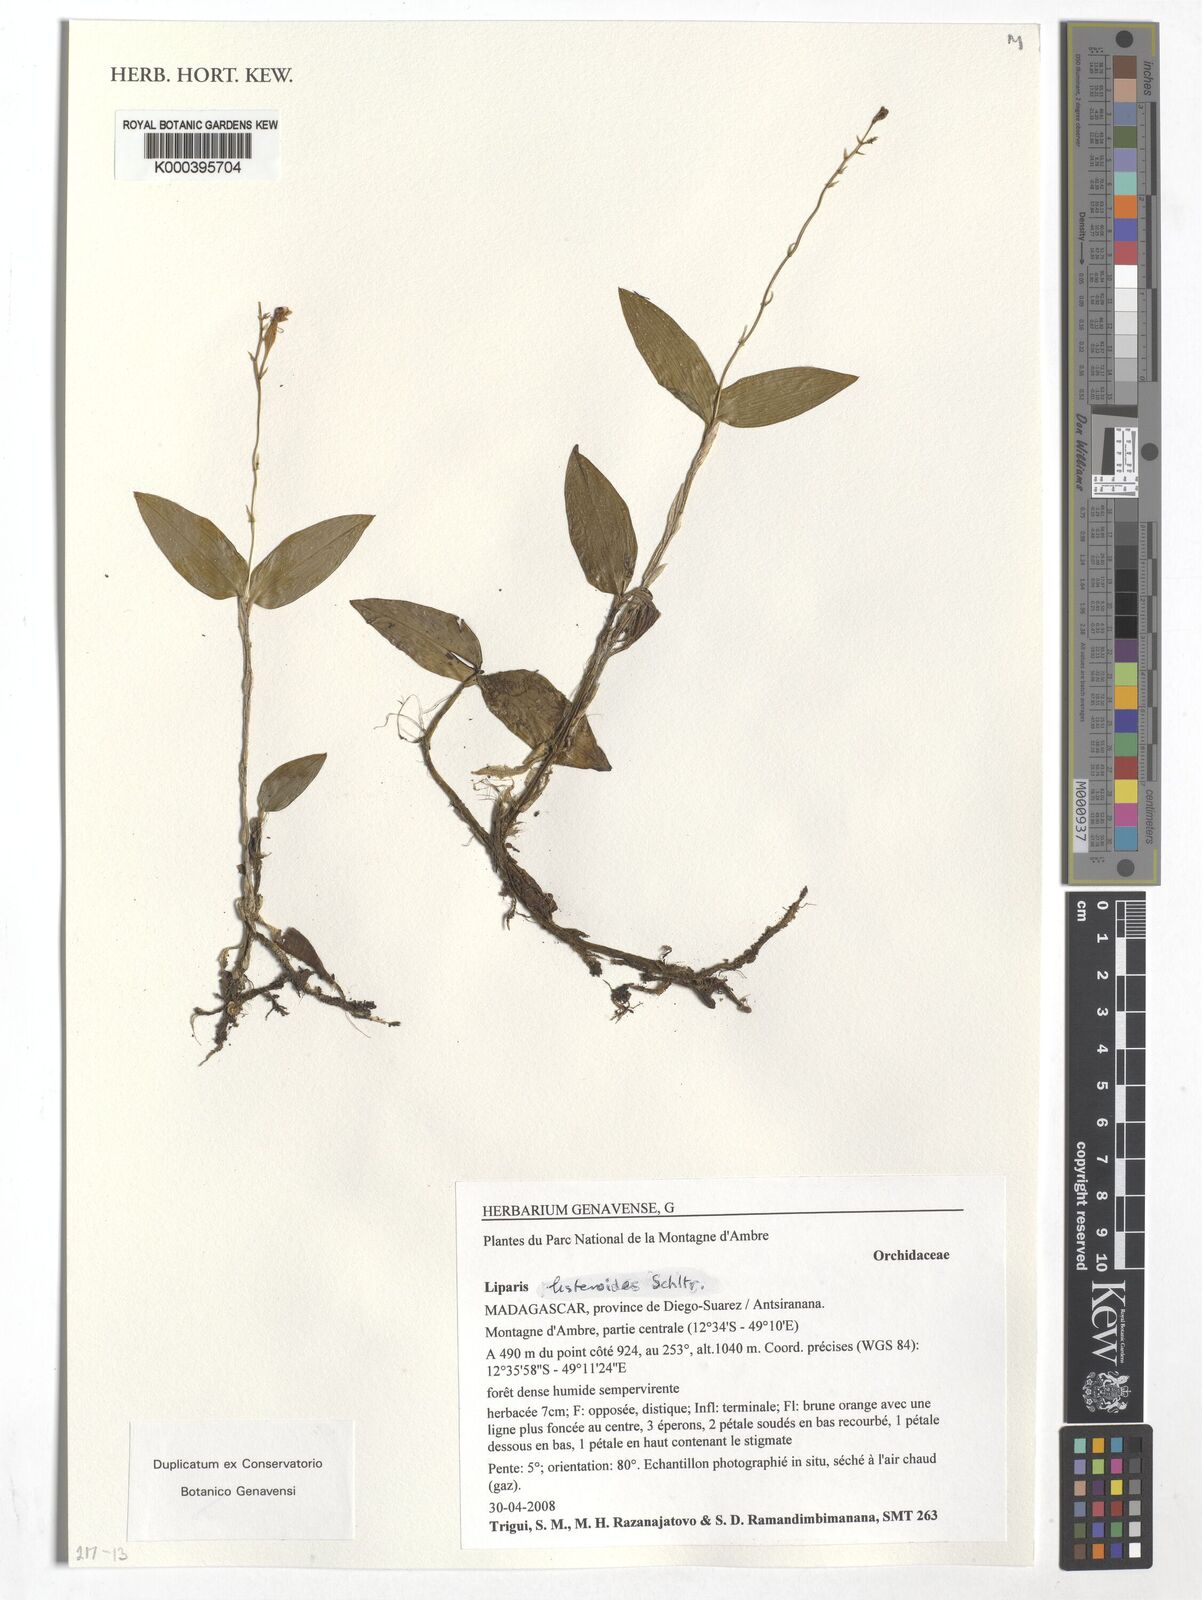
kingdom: Plantae
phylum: Tracheophyta
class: Liliopsida
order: Asparagales
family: Orchidaceae
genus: Liparis
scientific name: Liparis listeroides
